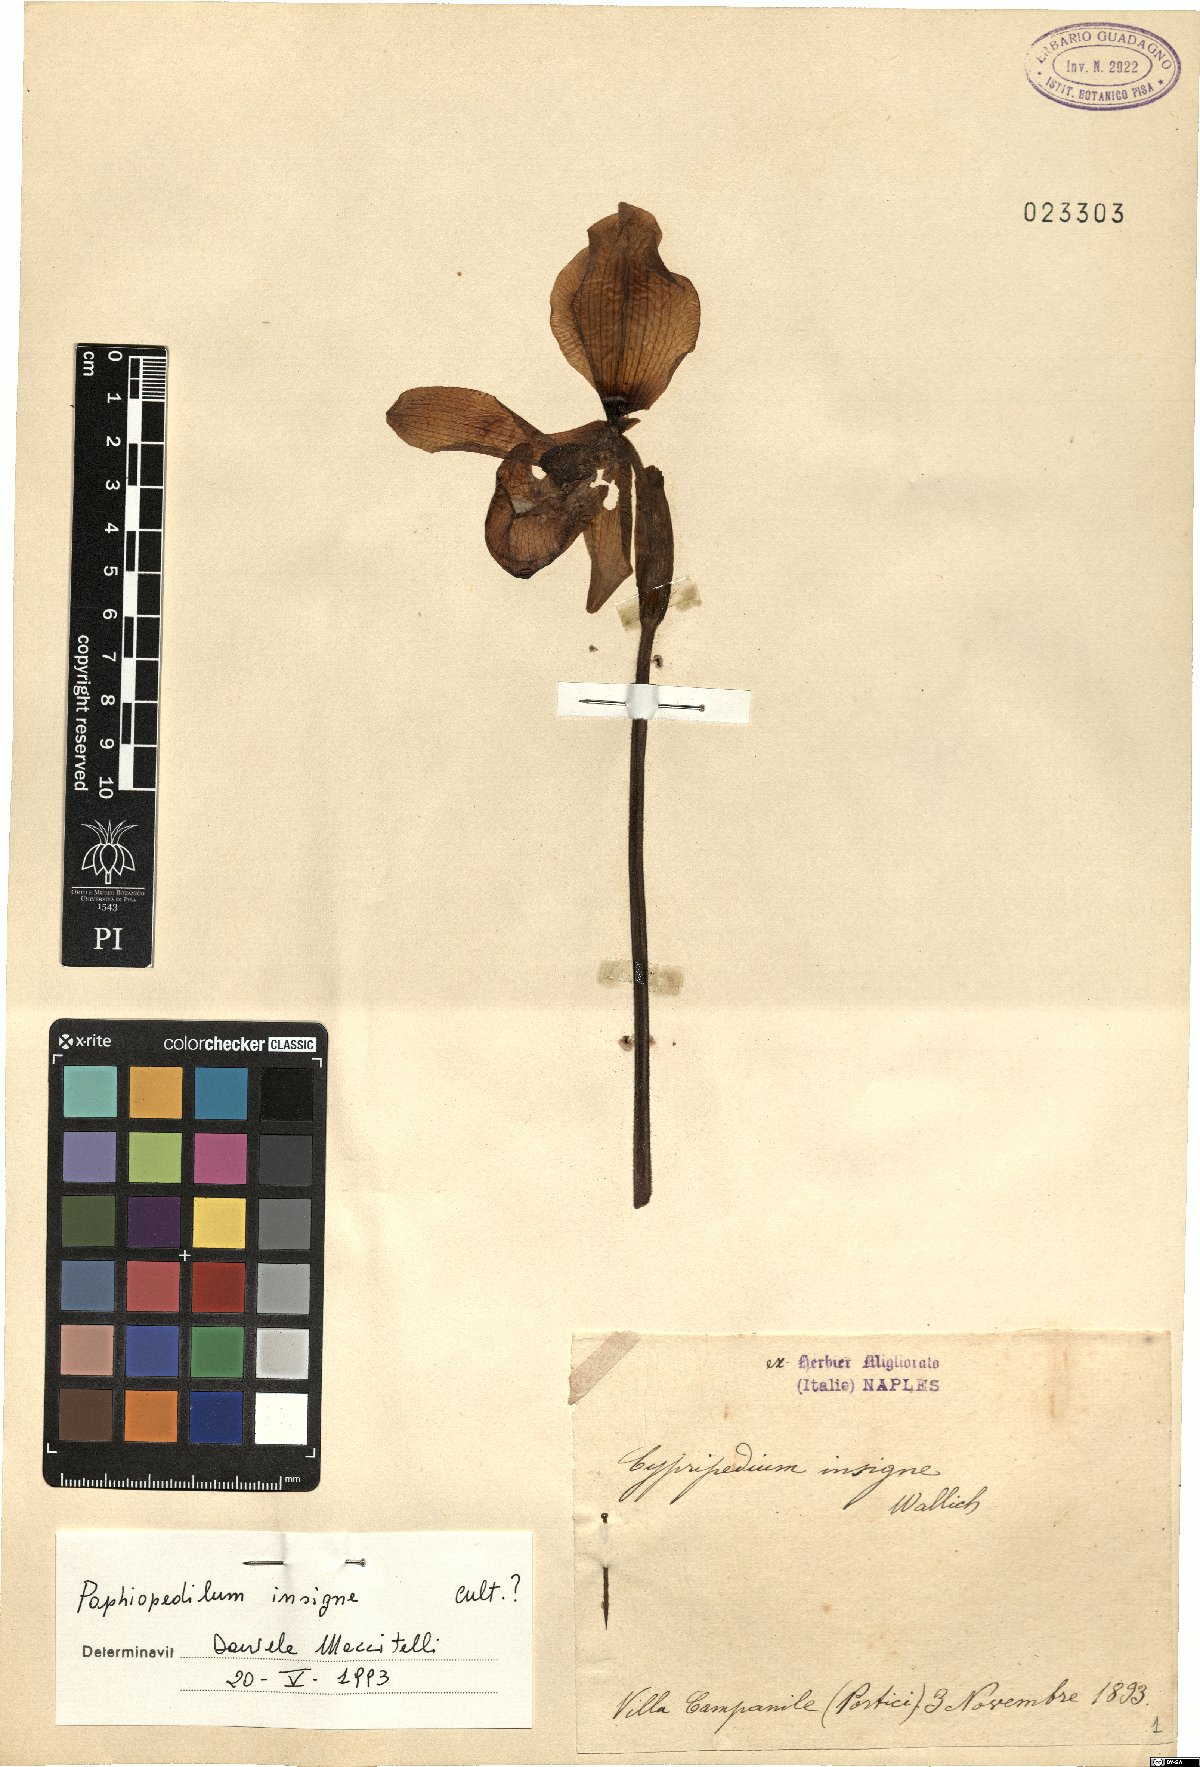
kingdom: Plantae
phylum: Tracheophyta
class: Liliopsida
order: Asparagales
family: Orchidaceae
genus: Paphiopedilum
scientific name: Paphiopedilum insigne
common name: Splendid paphiopedilum
